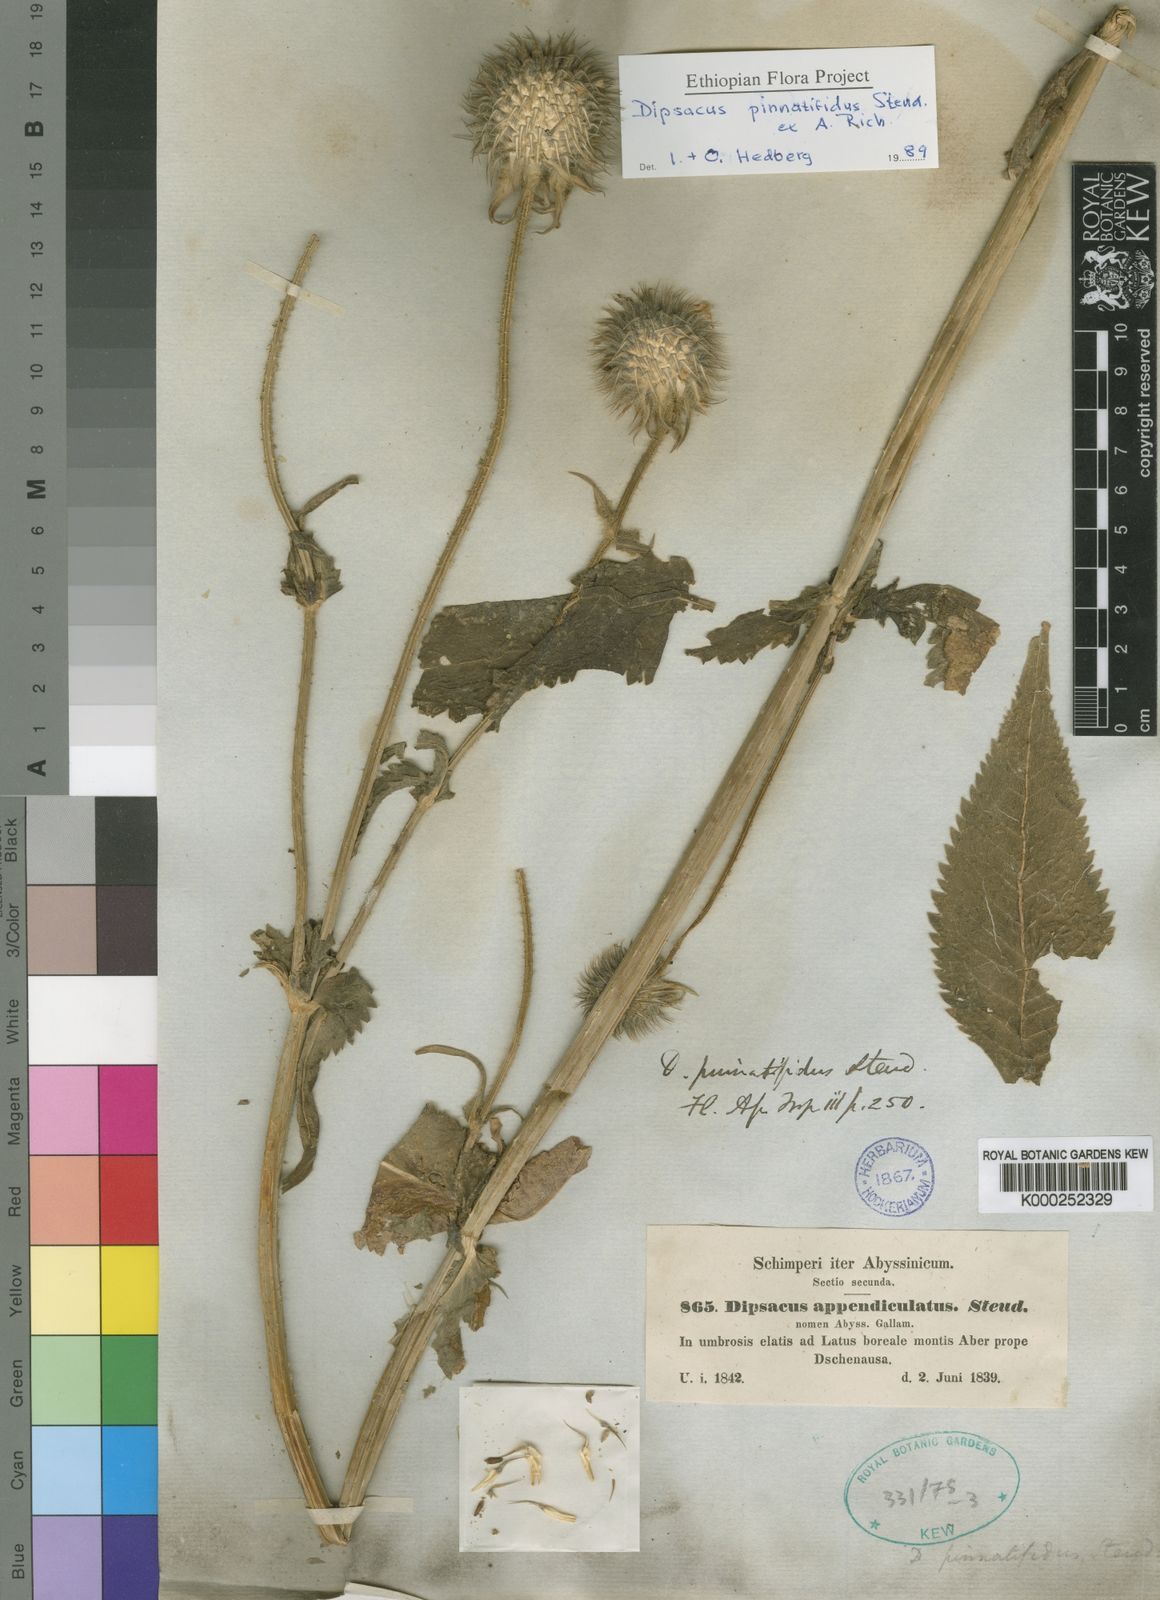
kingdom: Plantae
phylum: Tracheophyta
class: Magnoliopsida
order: Dipsacales
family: Caprifoliaceae
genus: Dipsacus
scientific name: Dipsacus pinnatifidus
